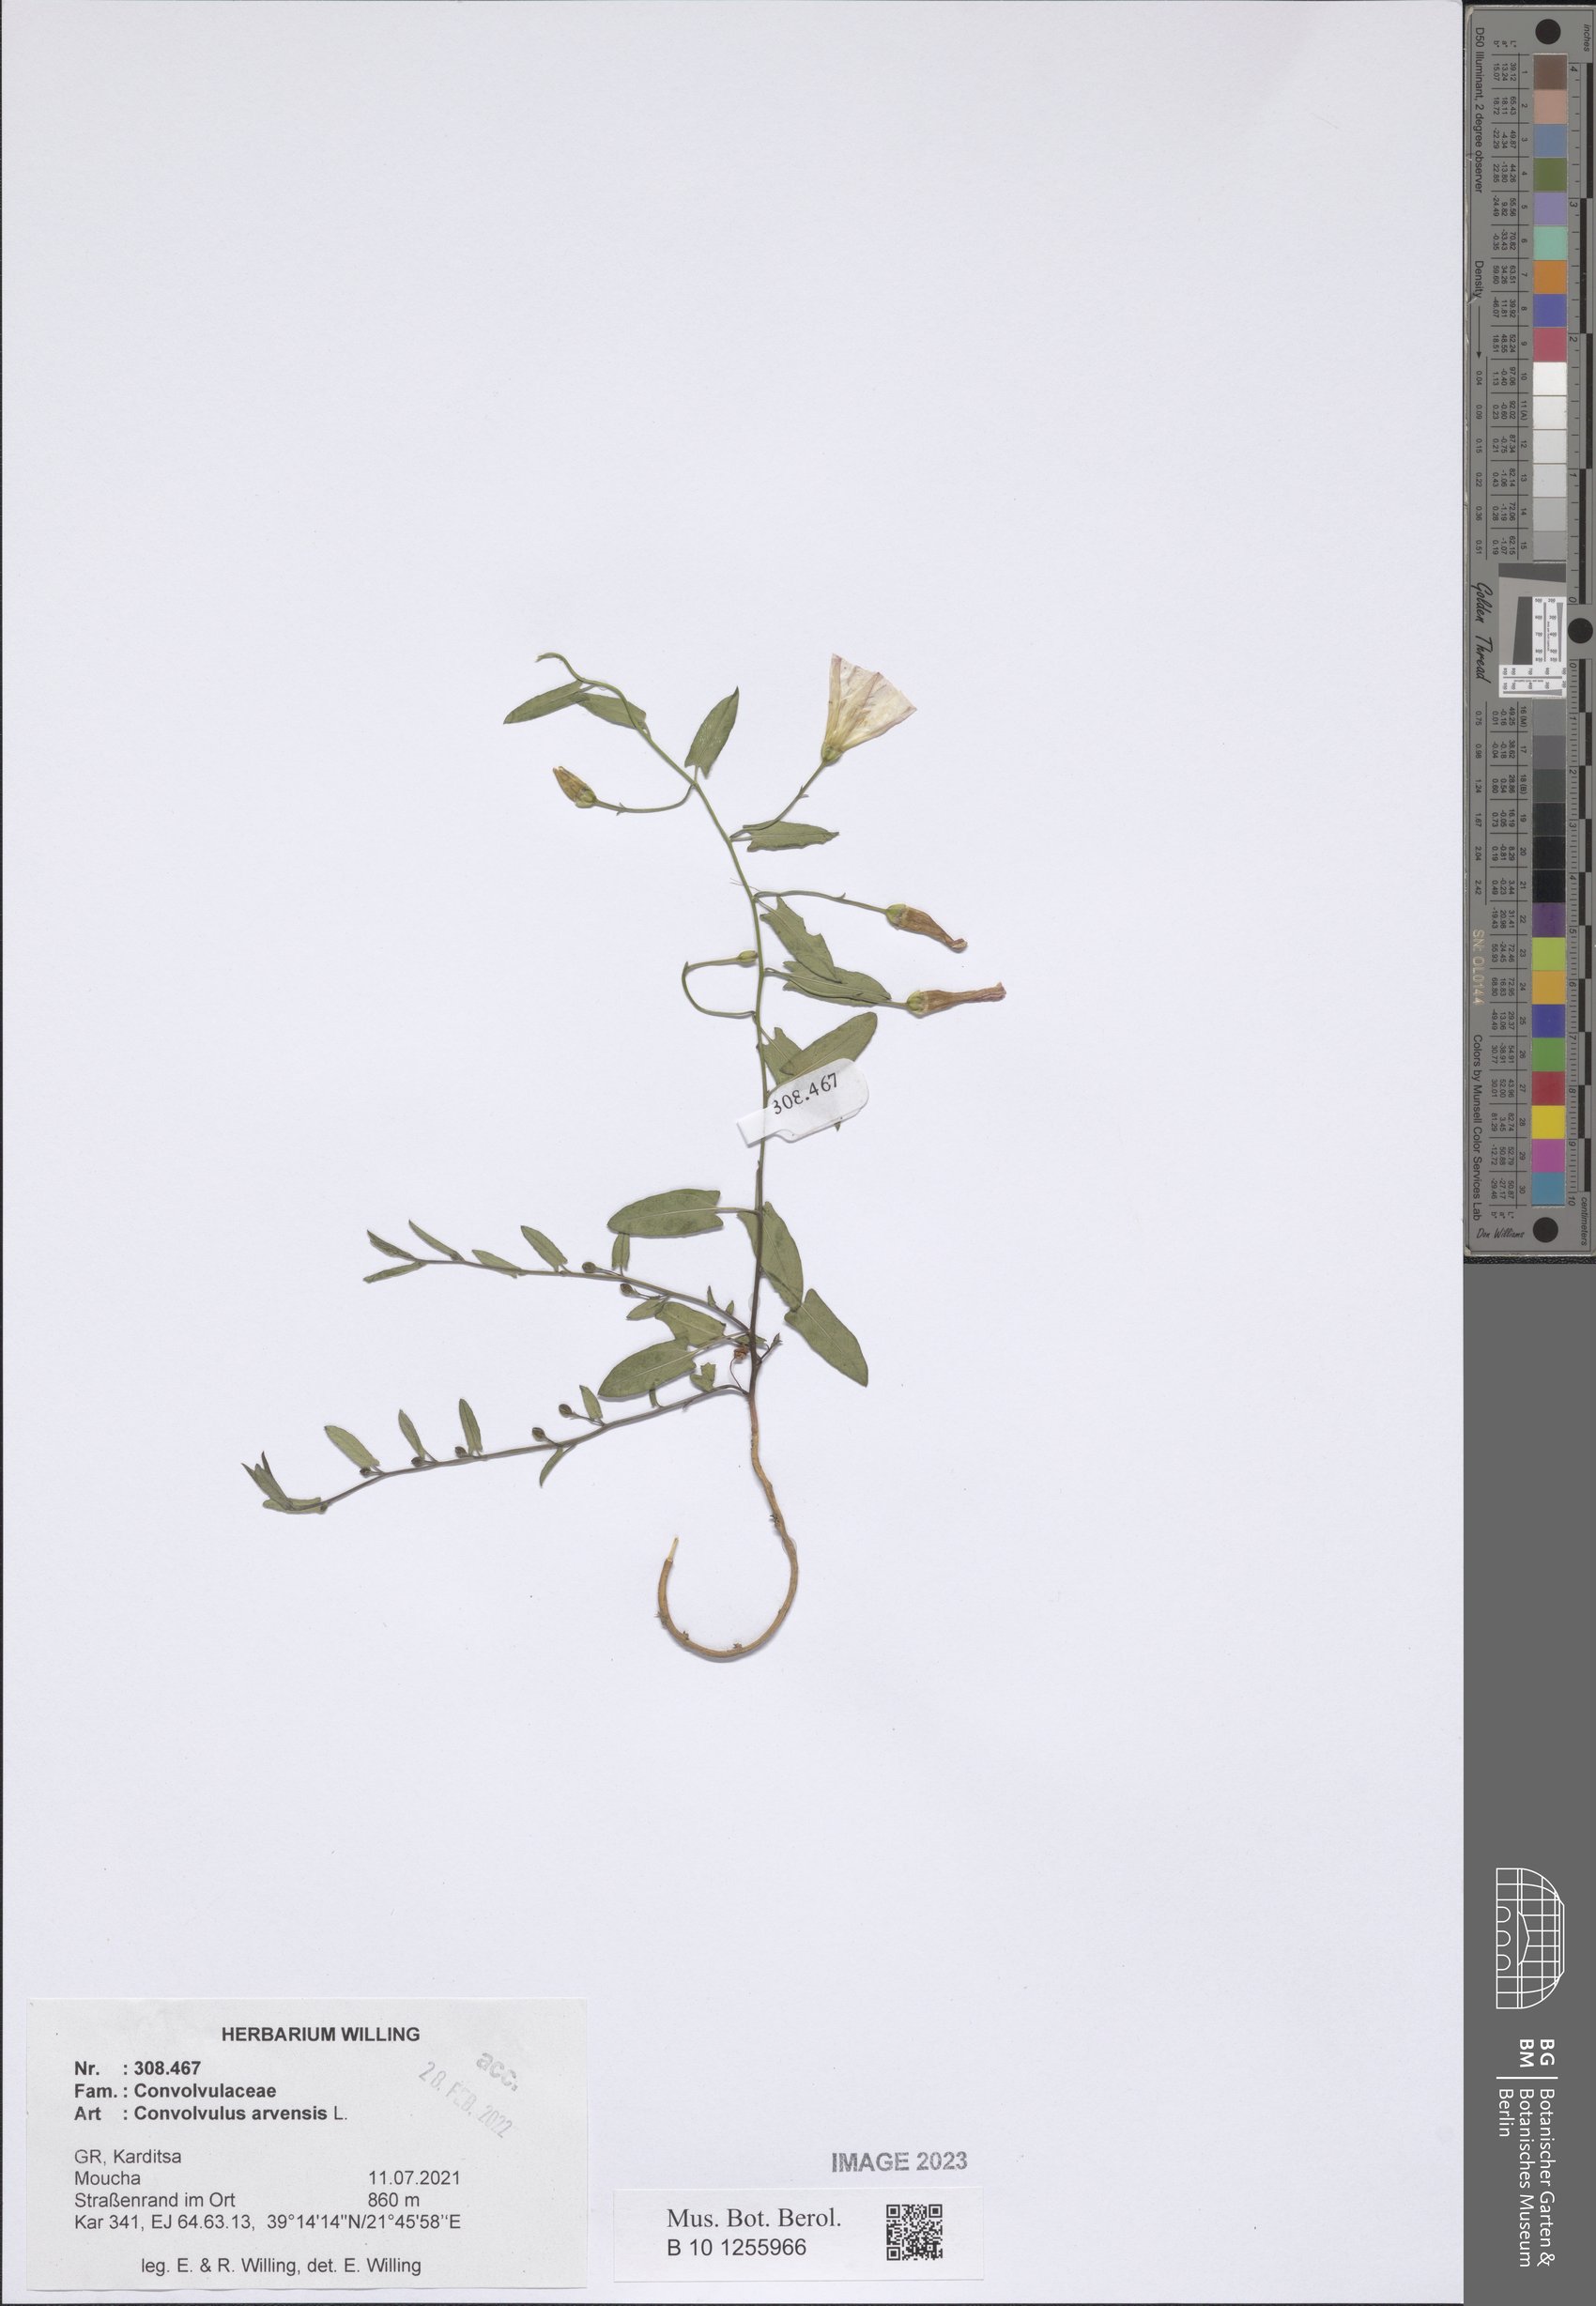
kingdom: Plantae
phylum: Tracheophyta
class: Magnoliopsida
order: Solanales
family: Convolvulaceae
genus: Convolvulus
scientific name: Convolvulus arvensis
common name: Field bindweed
